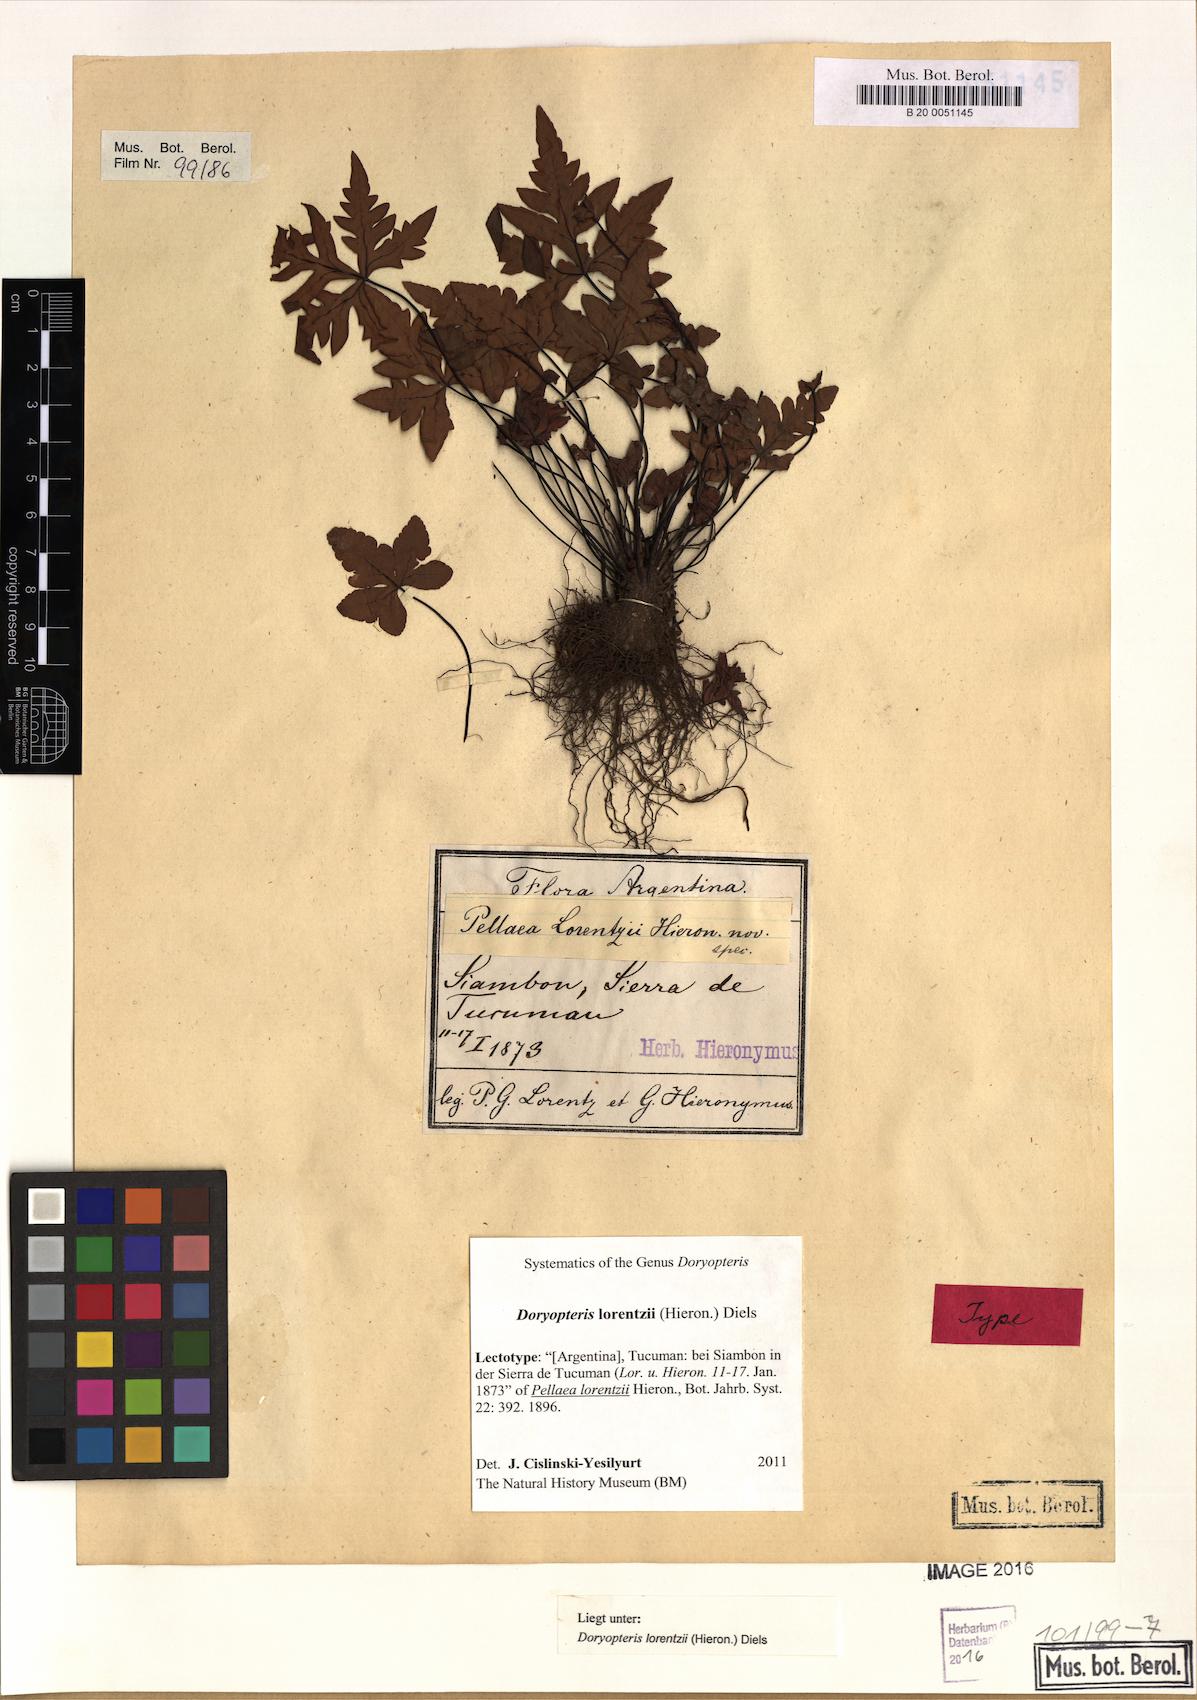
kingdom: Plantae
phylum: Tracheophyta
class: Polypodiopsida
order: Polypodiales
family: Pteridaceae
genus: Doryopteris
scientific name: Doryopteris lorentzii
